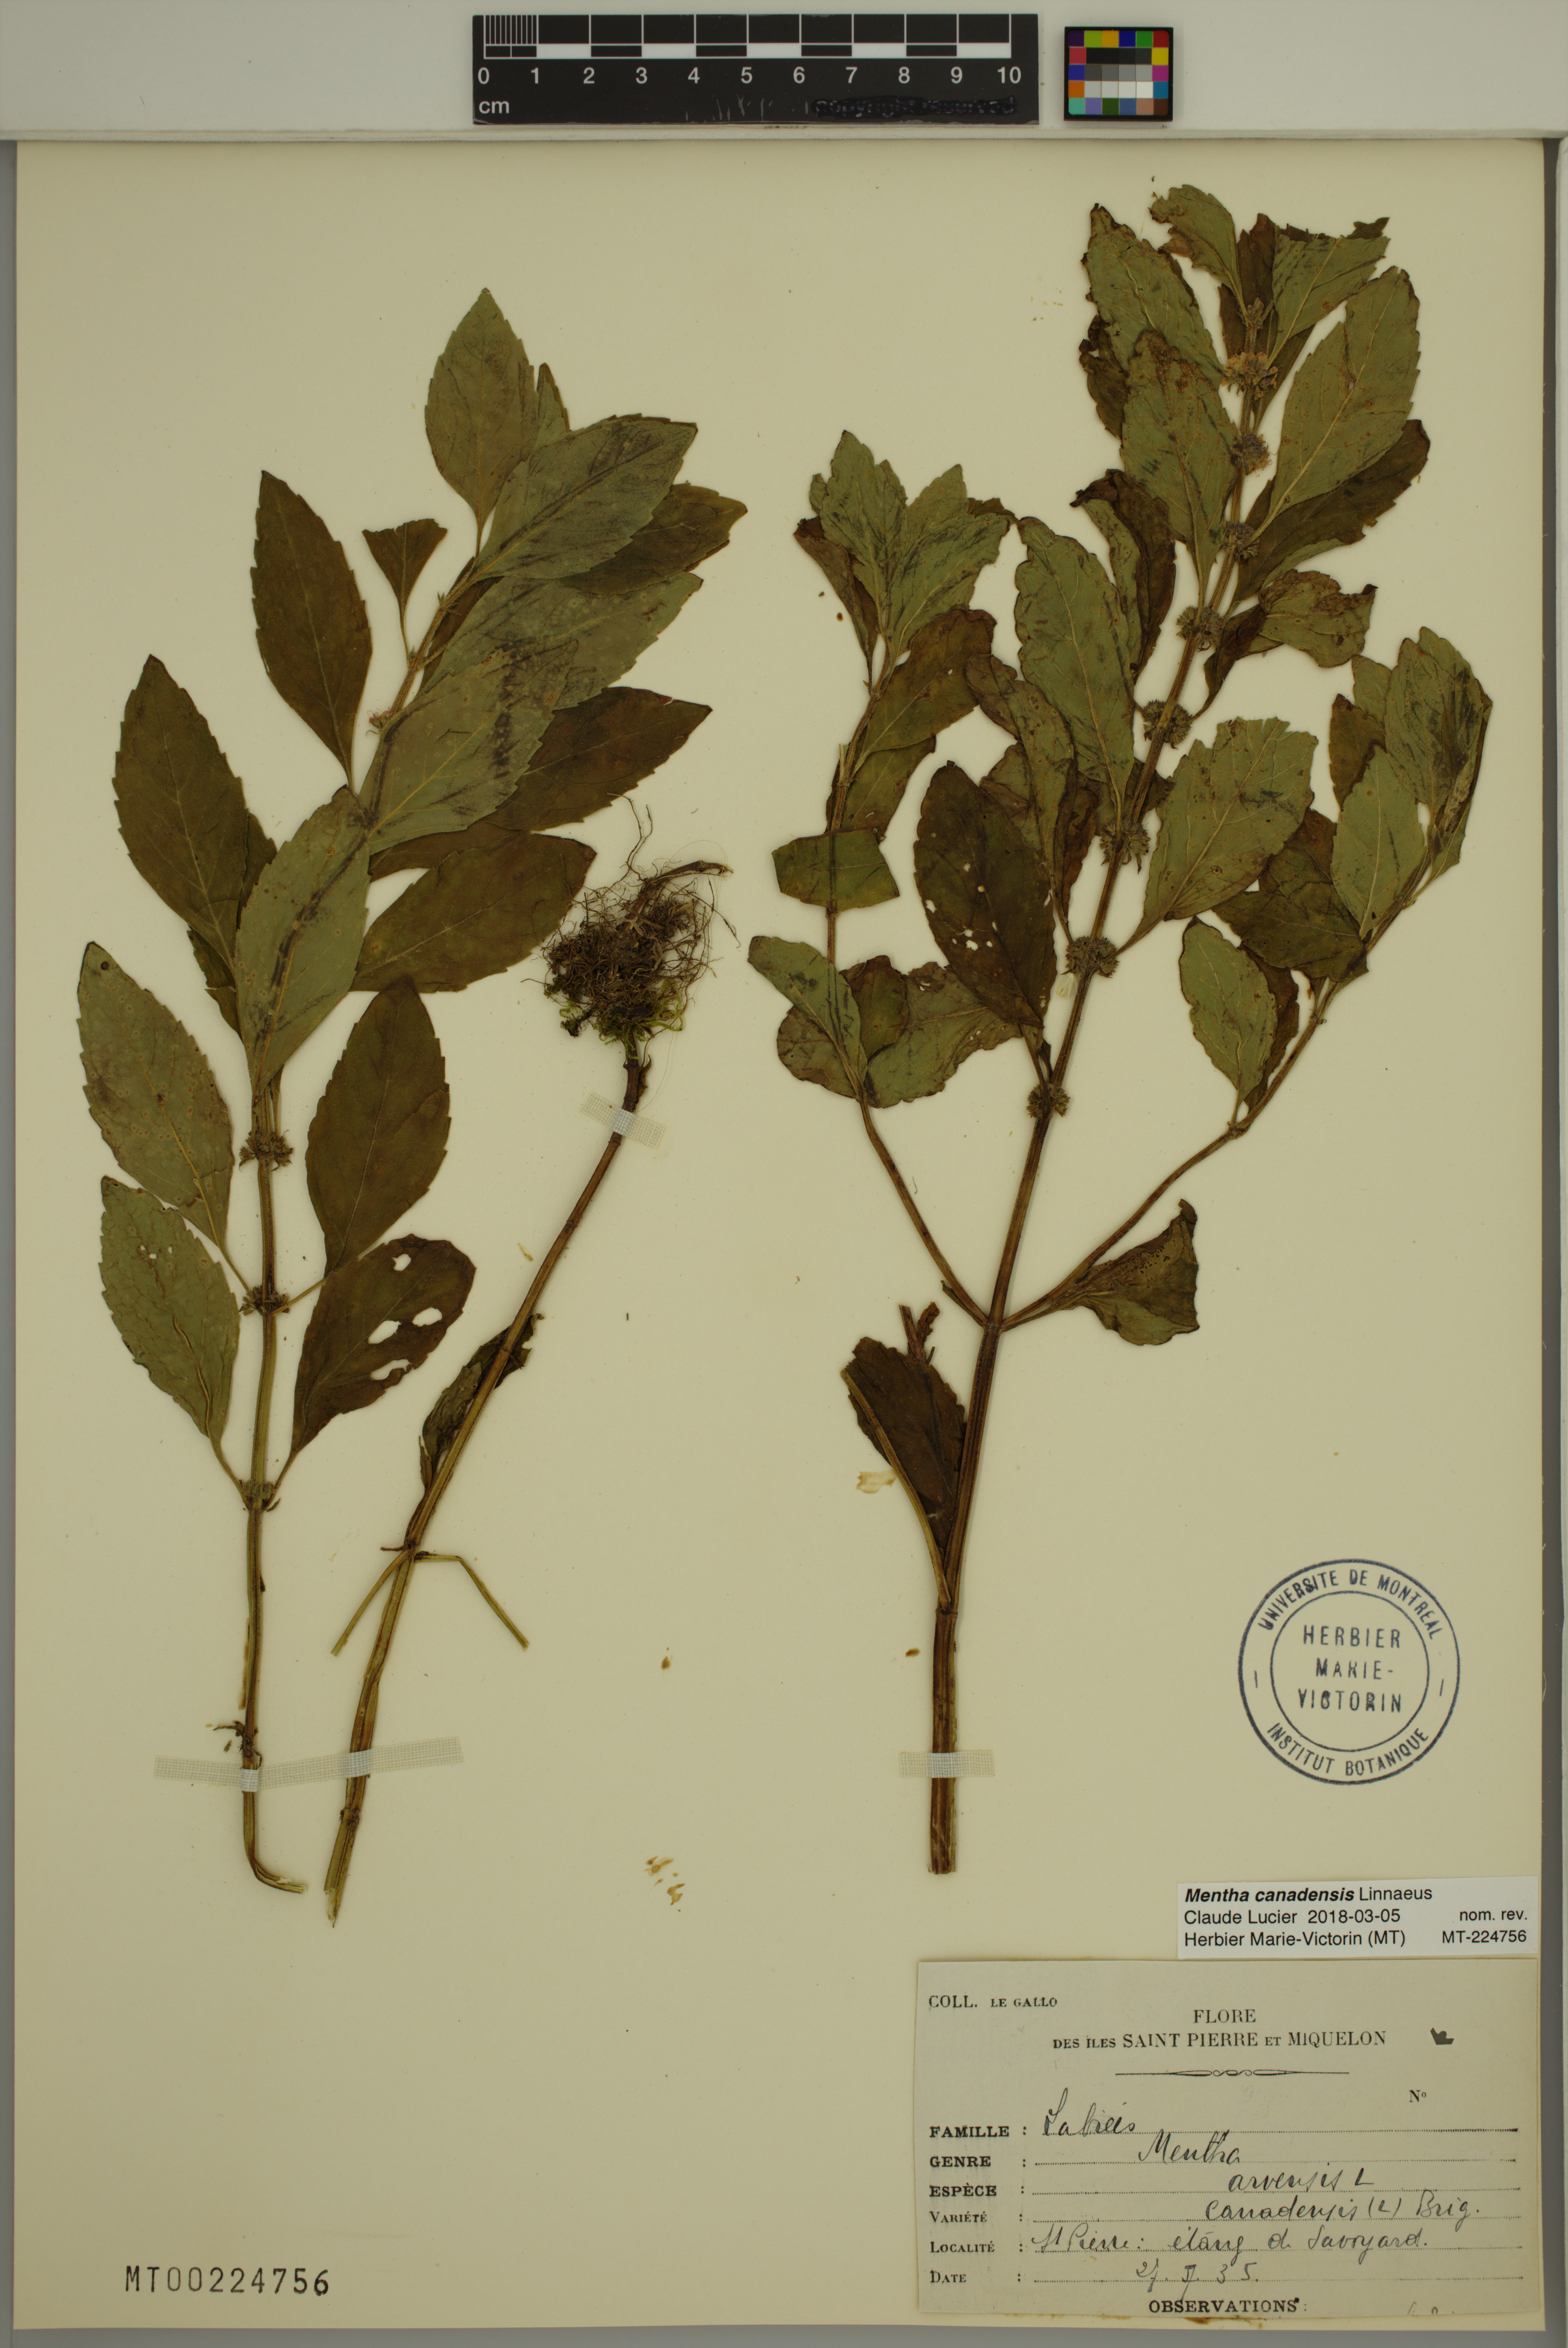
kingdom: Plantae
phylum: Tracheophyta
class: Magnoliopsida
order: Lamiales
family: Lamiaceae
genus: Mentha
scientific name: Mentha canadensis
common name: American corn mint
